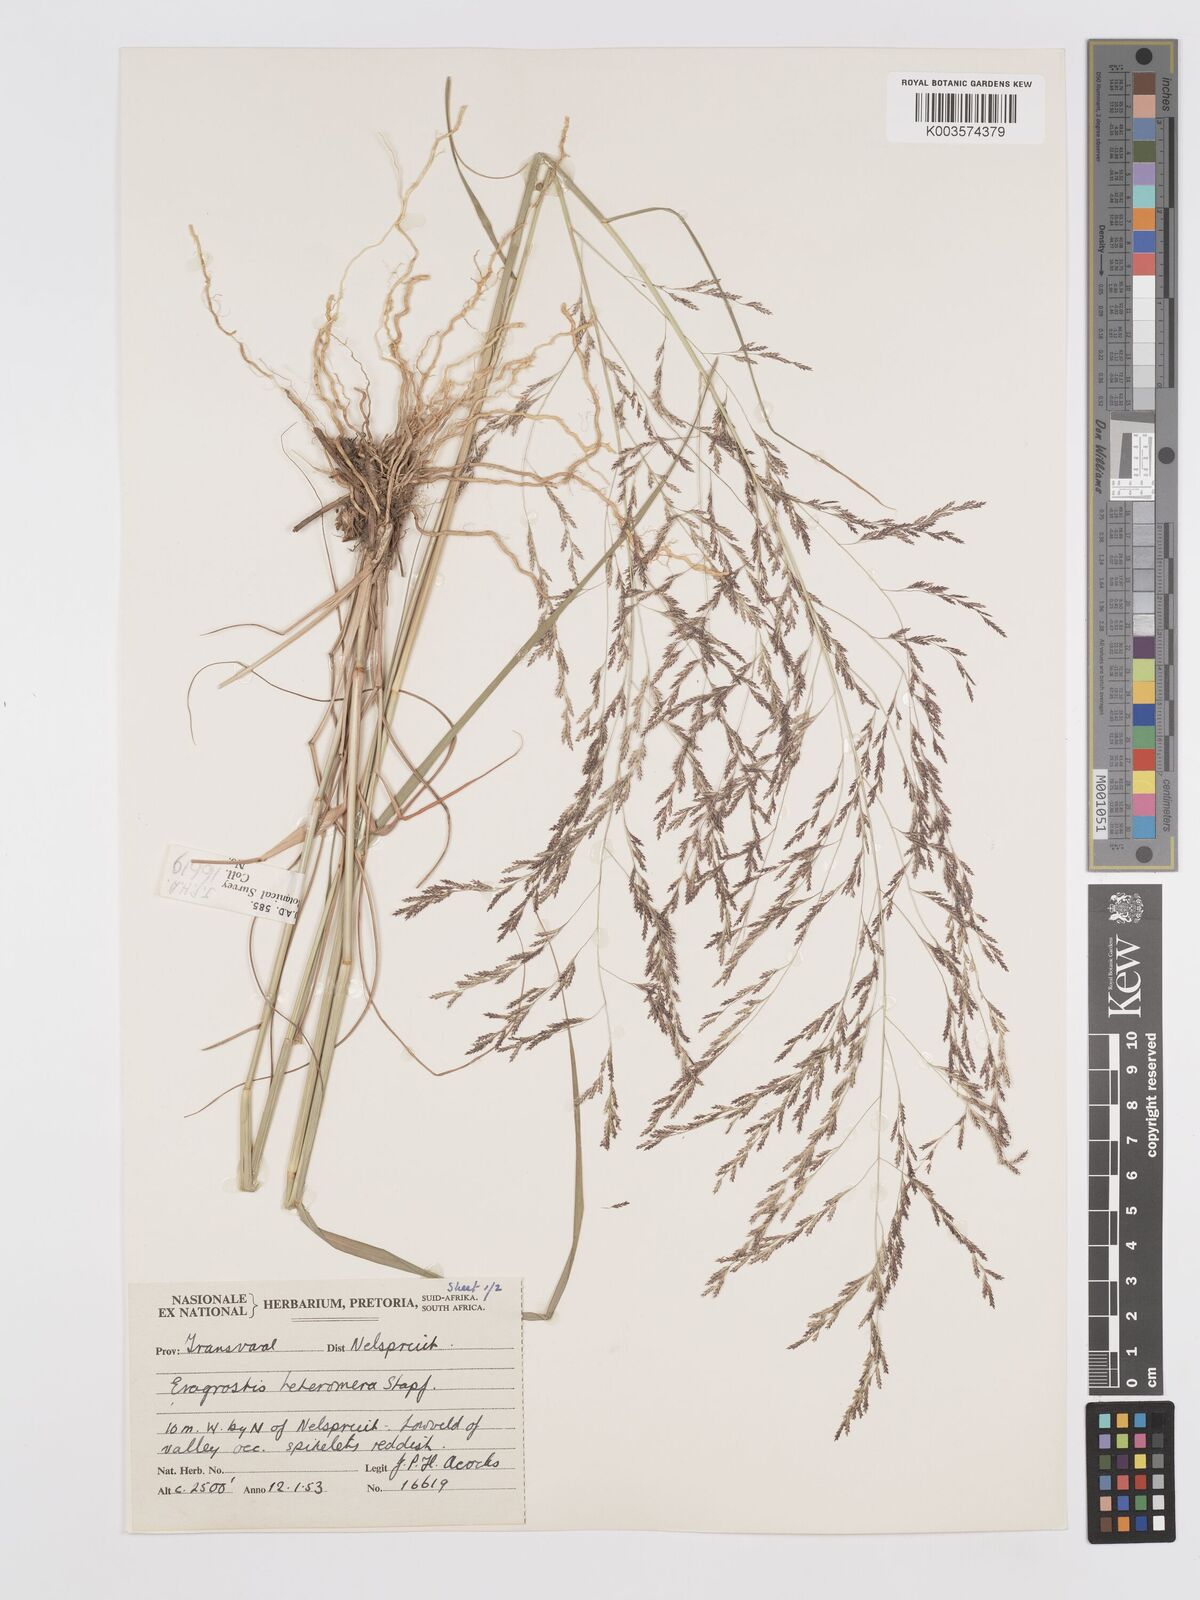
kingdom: Plantae
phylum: Tracheophyta
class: Liliopsida
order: Poales
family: Poaceae
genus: Eragrostis
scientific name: Eragrostis heteromera
